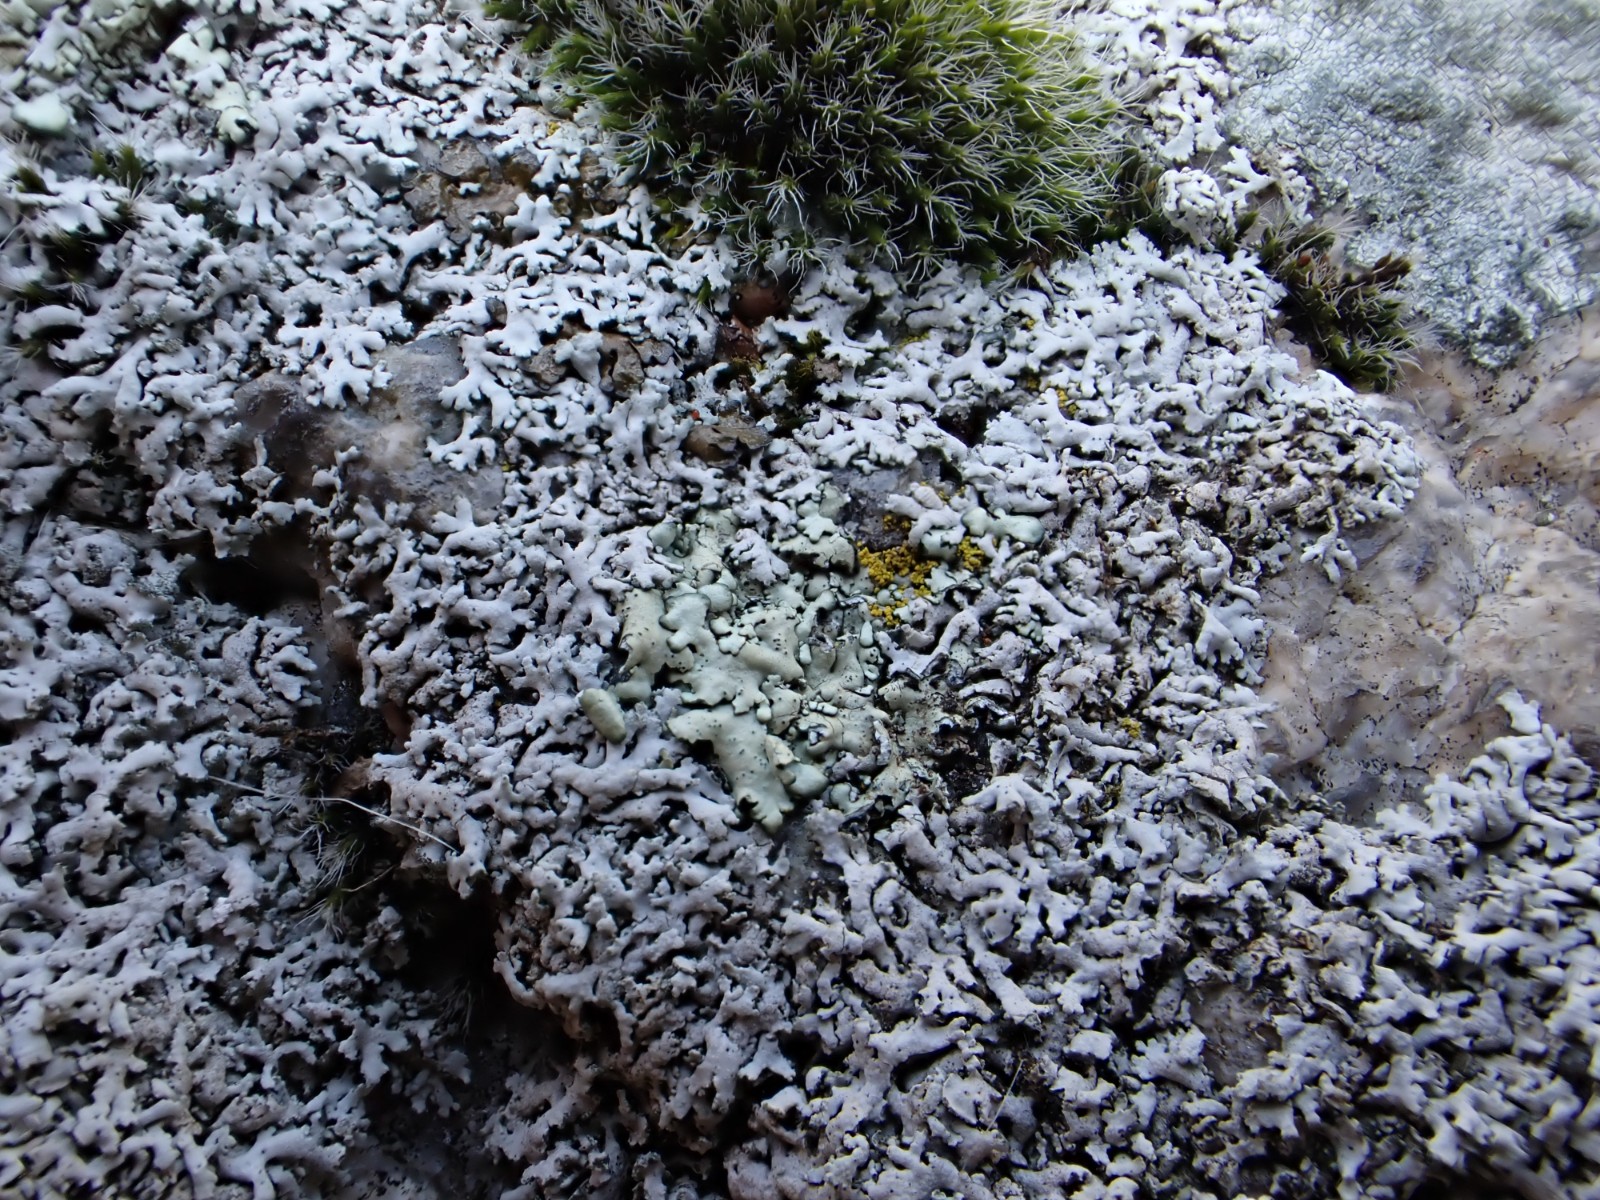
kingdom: Fungi
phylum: Ascomycota
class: Lecanoromycetes
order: Caliciales
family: Physciaceae
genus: Physcia
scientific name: Physcia
